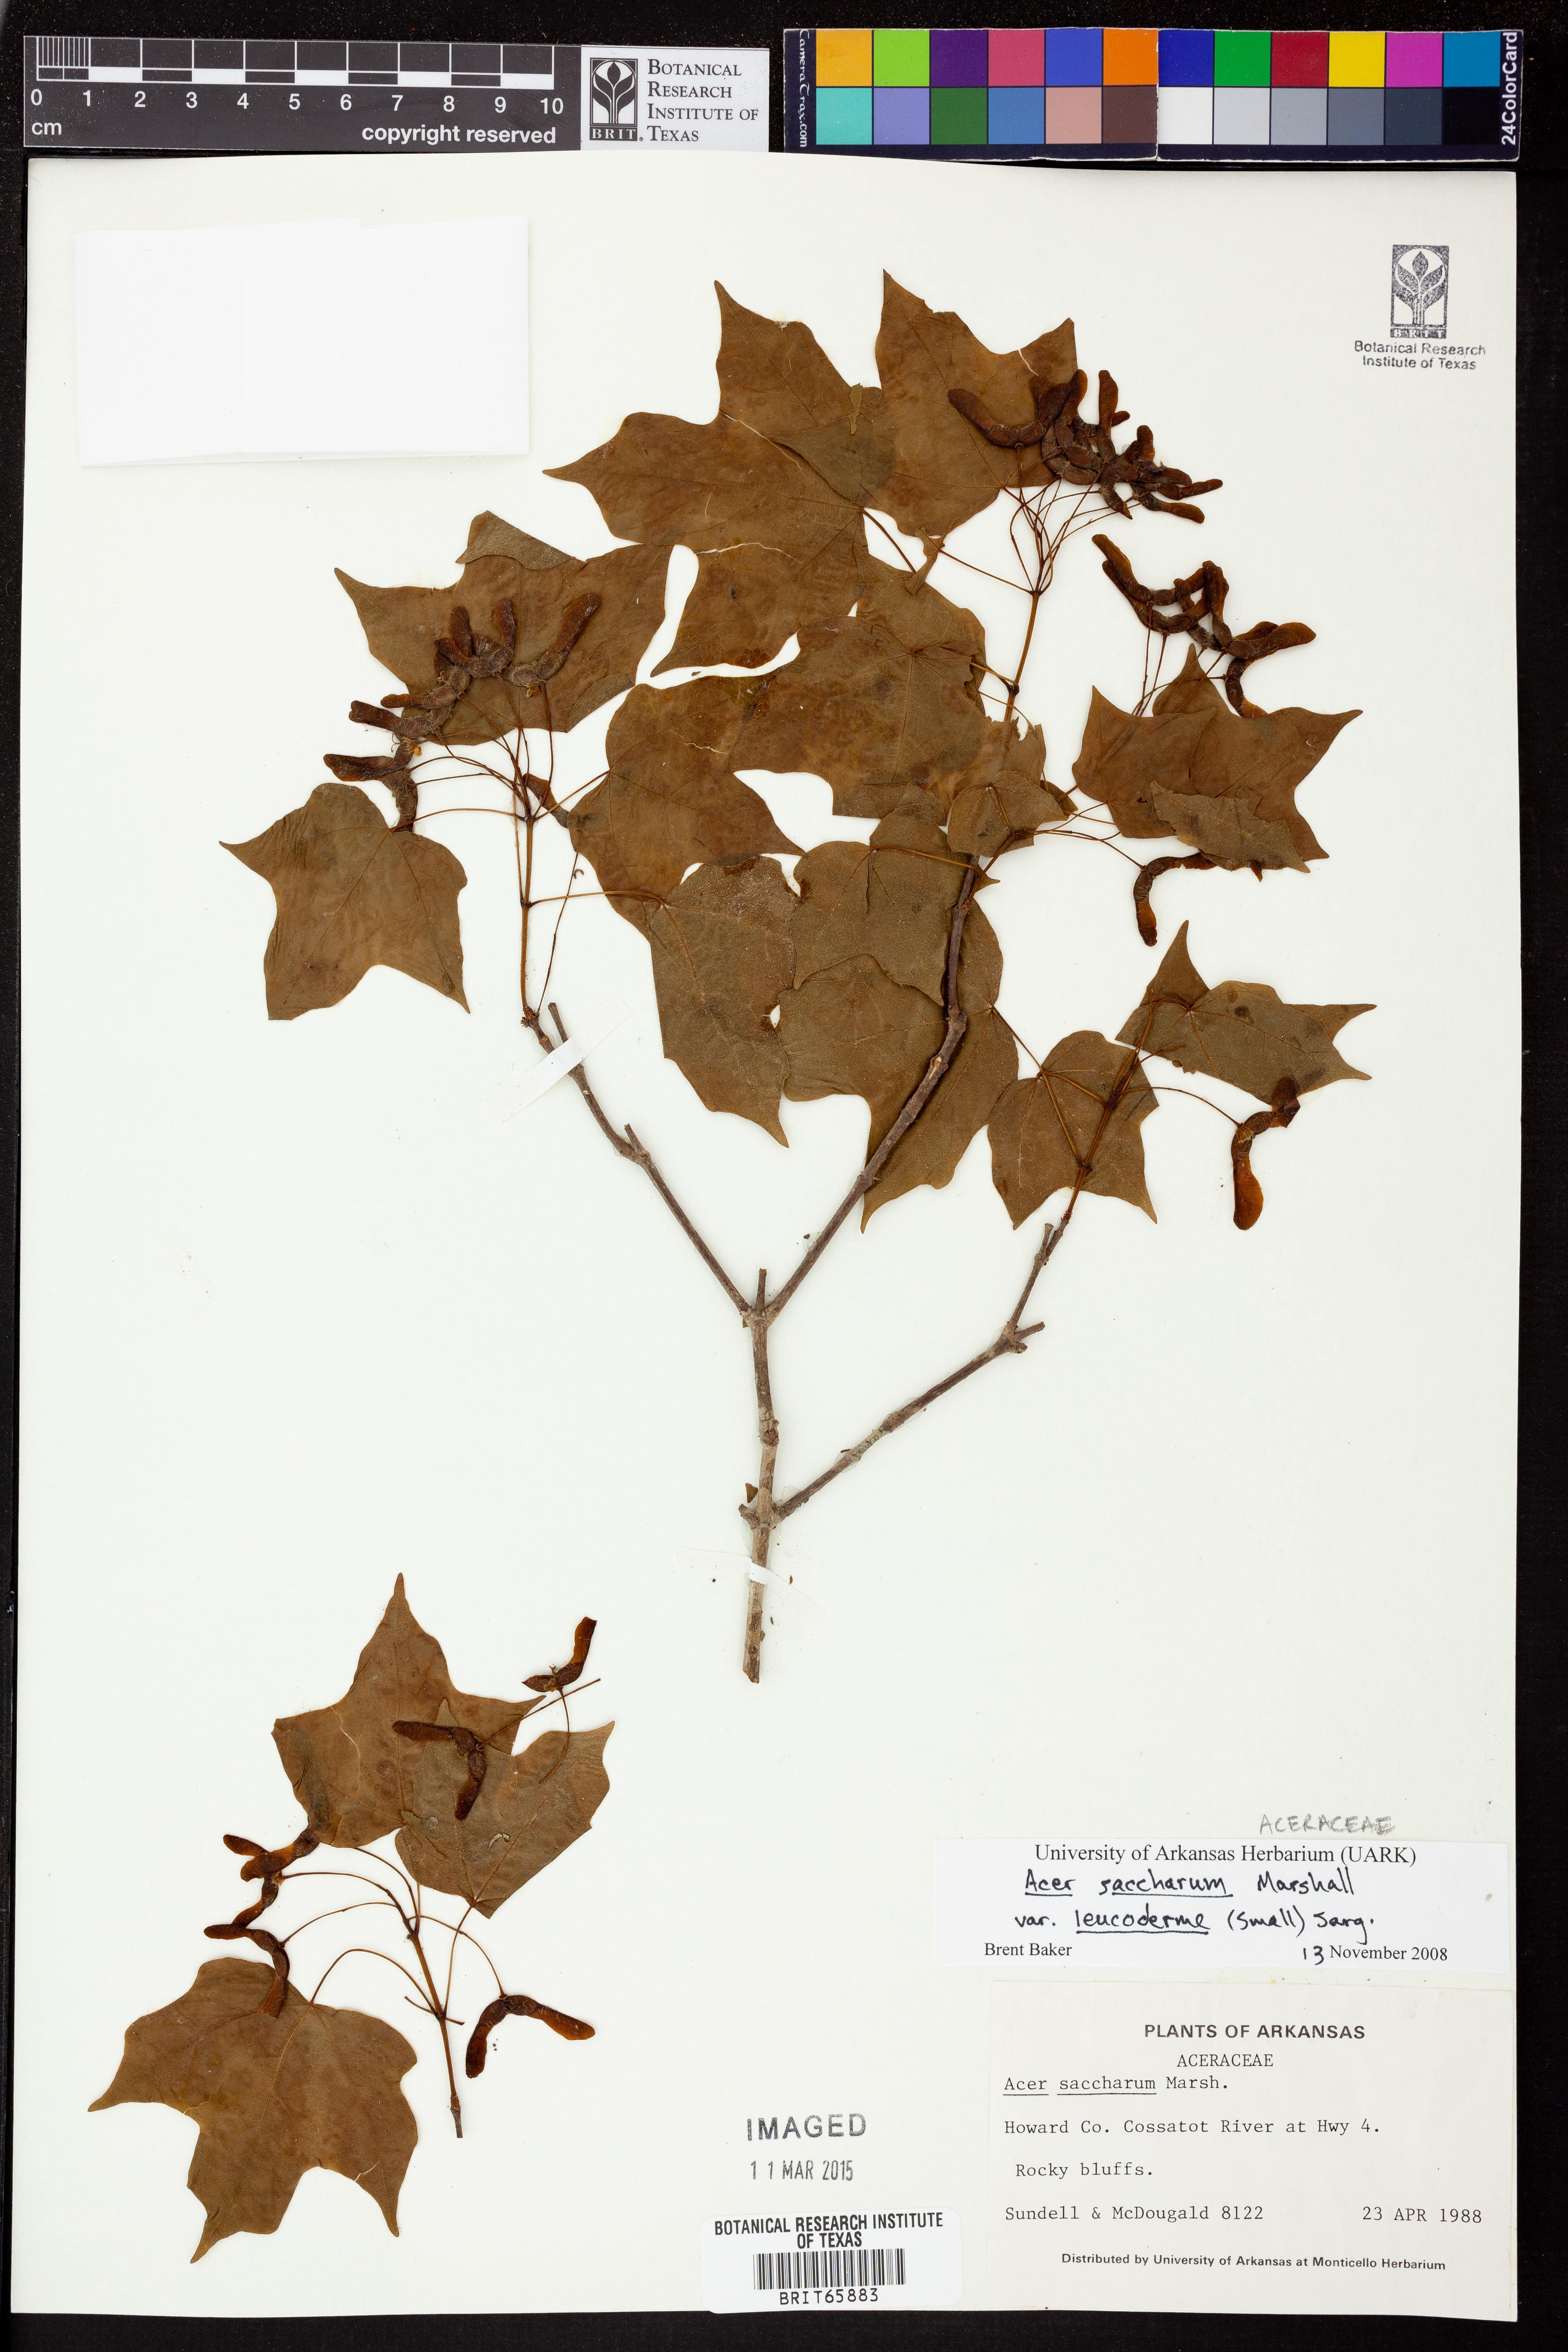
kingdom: Plantae
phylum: Tracheophyta
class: Magnoliopsida
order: Sapindales
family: Sapindaceae
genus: Acer
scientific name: Acer saccharum
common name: Sugar maple
